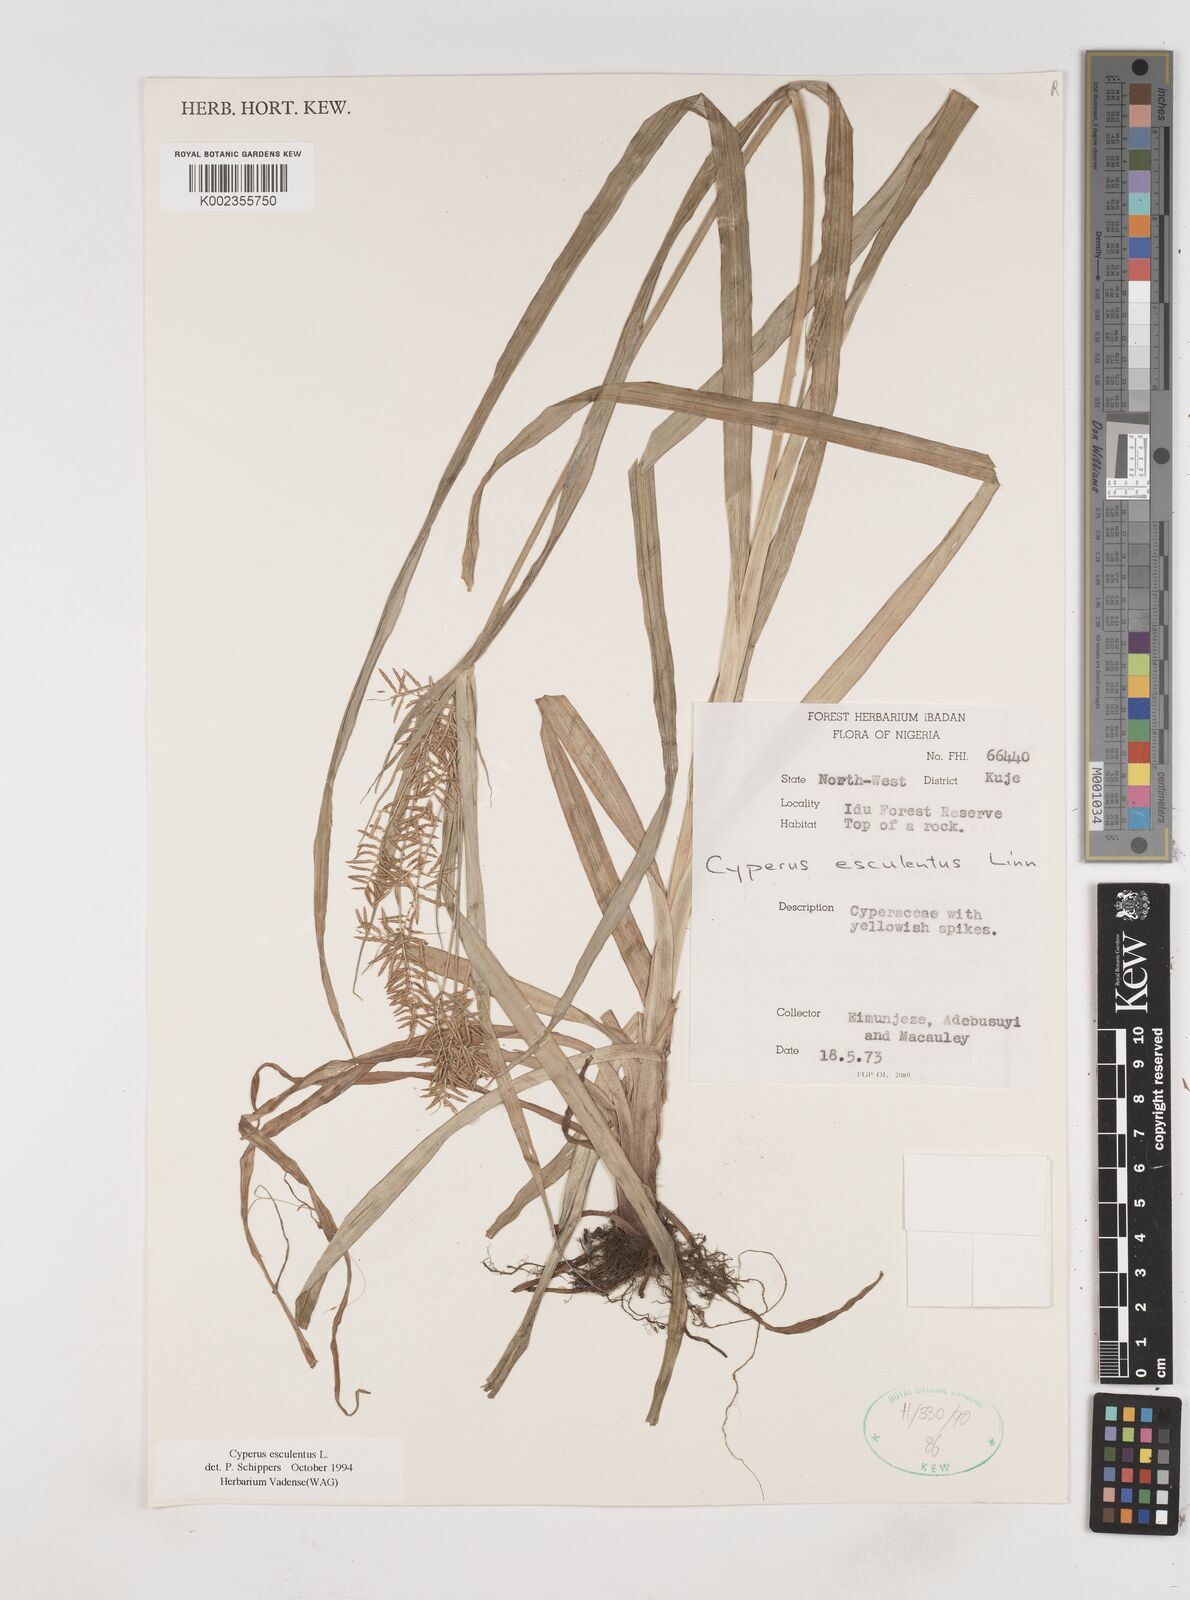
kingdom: Plantae
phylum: Tracheophyta
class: Liliopsida
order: Poales
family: Cyperaceae
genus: Cyperus
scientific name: Cyperus esculentus
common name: Yellow nutsedge
